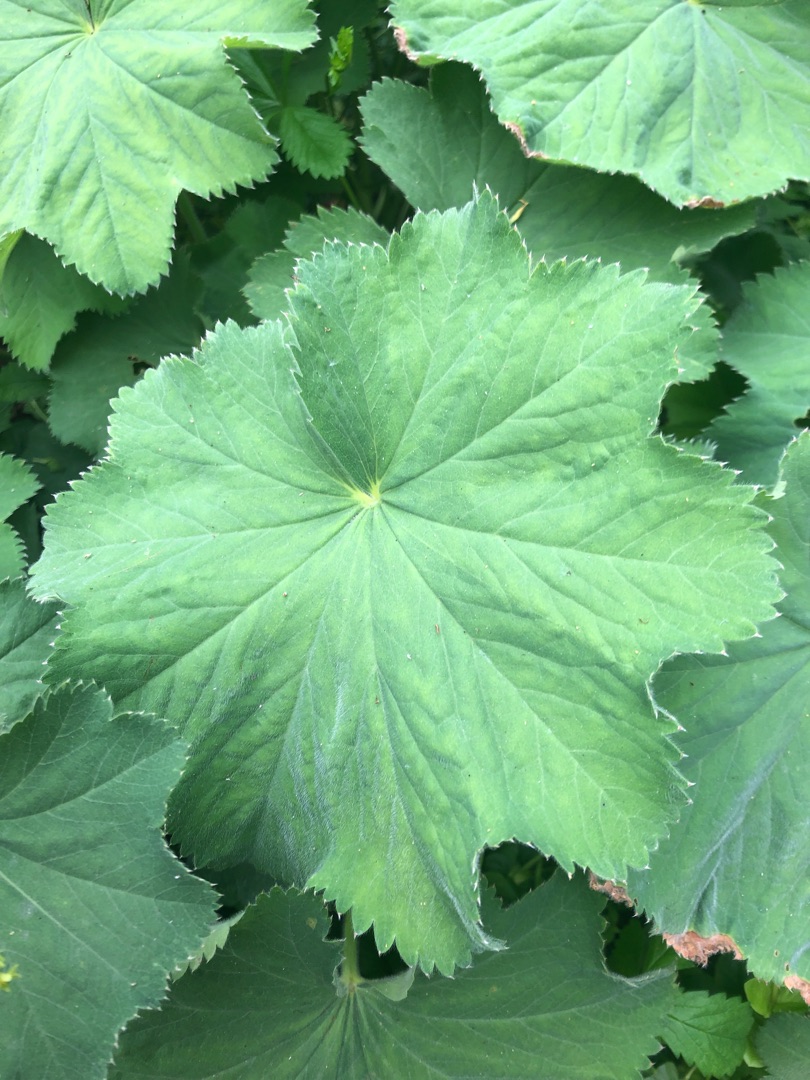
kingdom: Plantae
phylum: Tracheophyta
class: Magnoliopsida
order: Rosales
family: Rosaceae
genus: Alchemilla
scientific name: Alchemilla mollis
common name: Lådden løvefod
